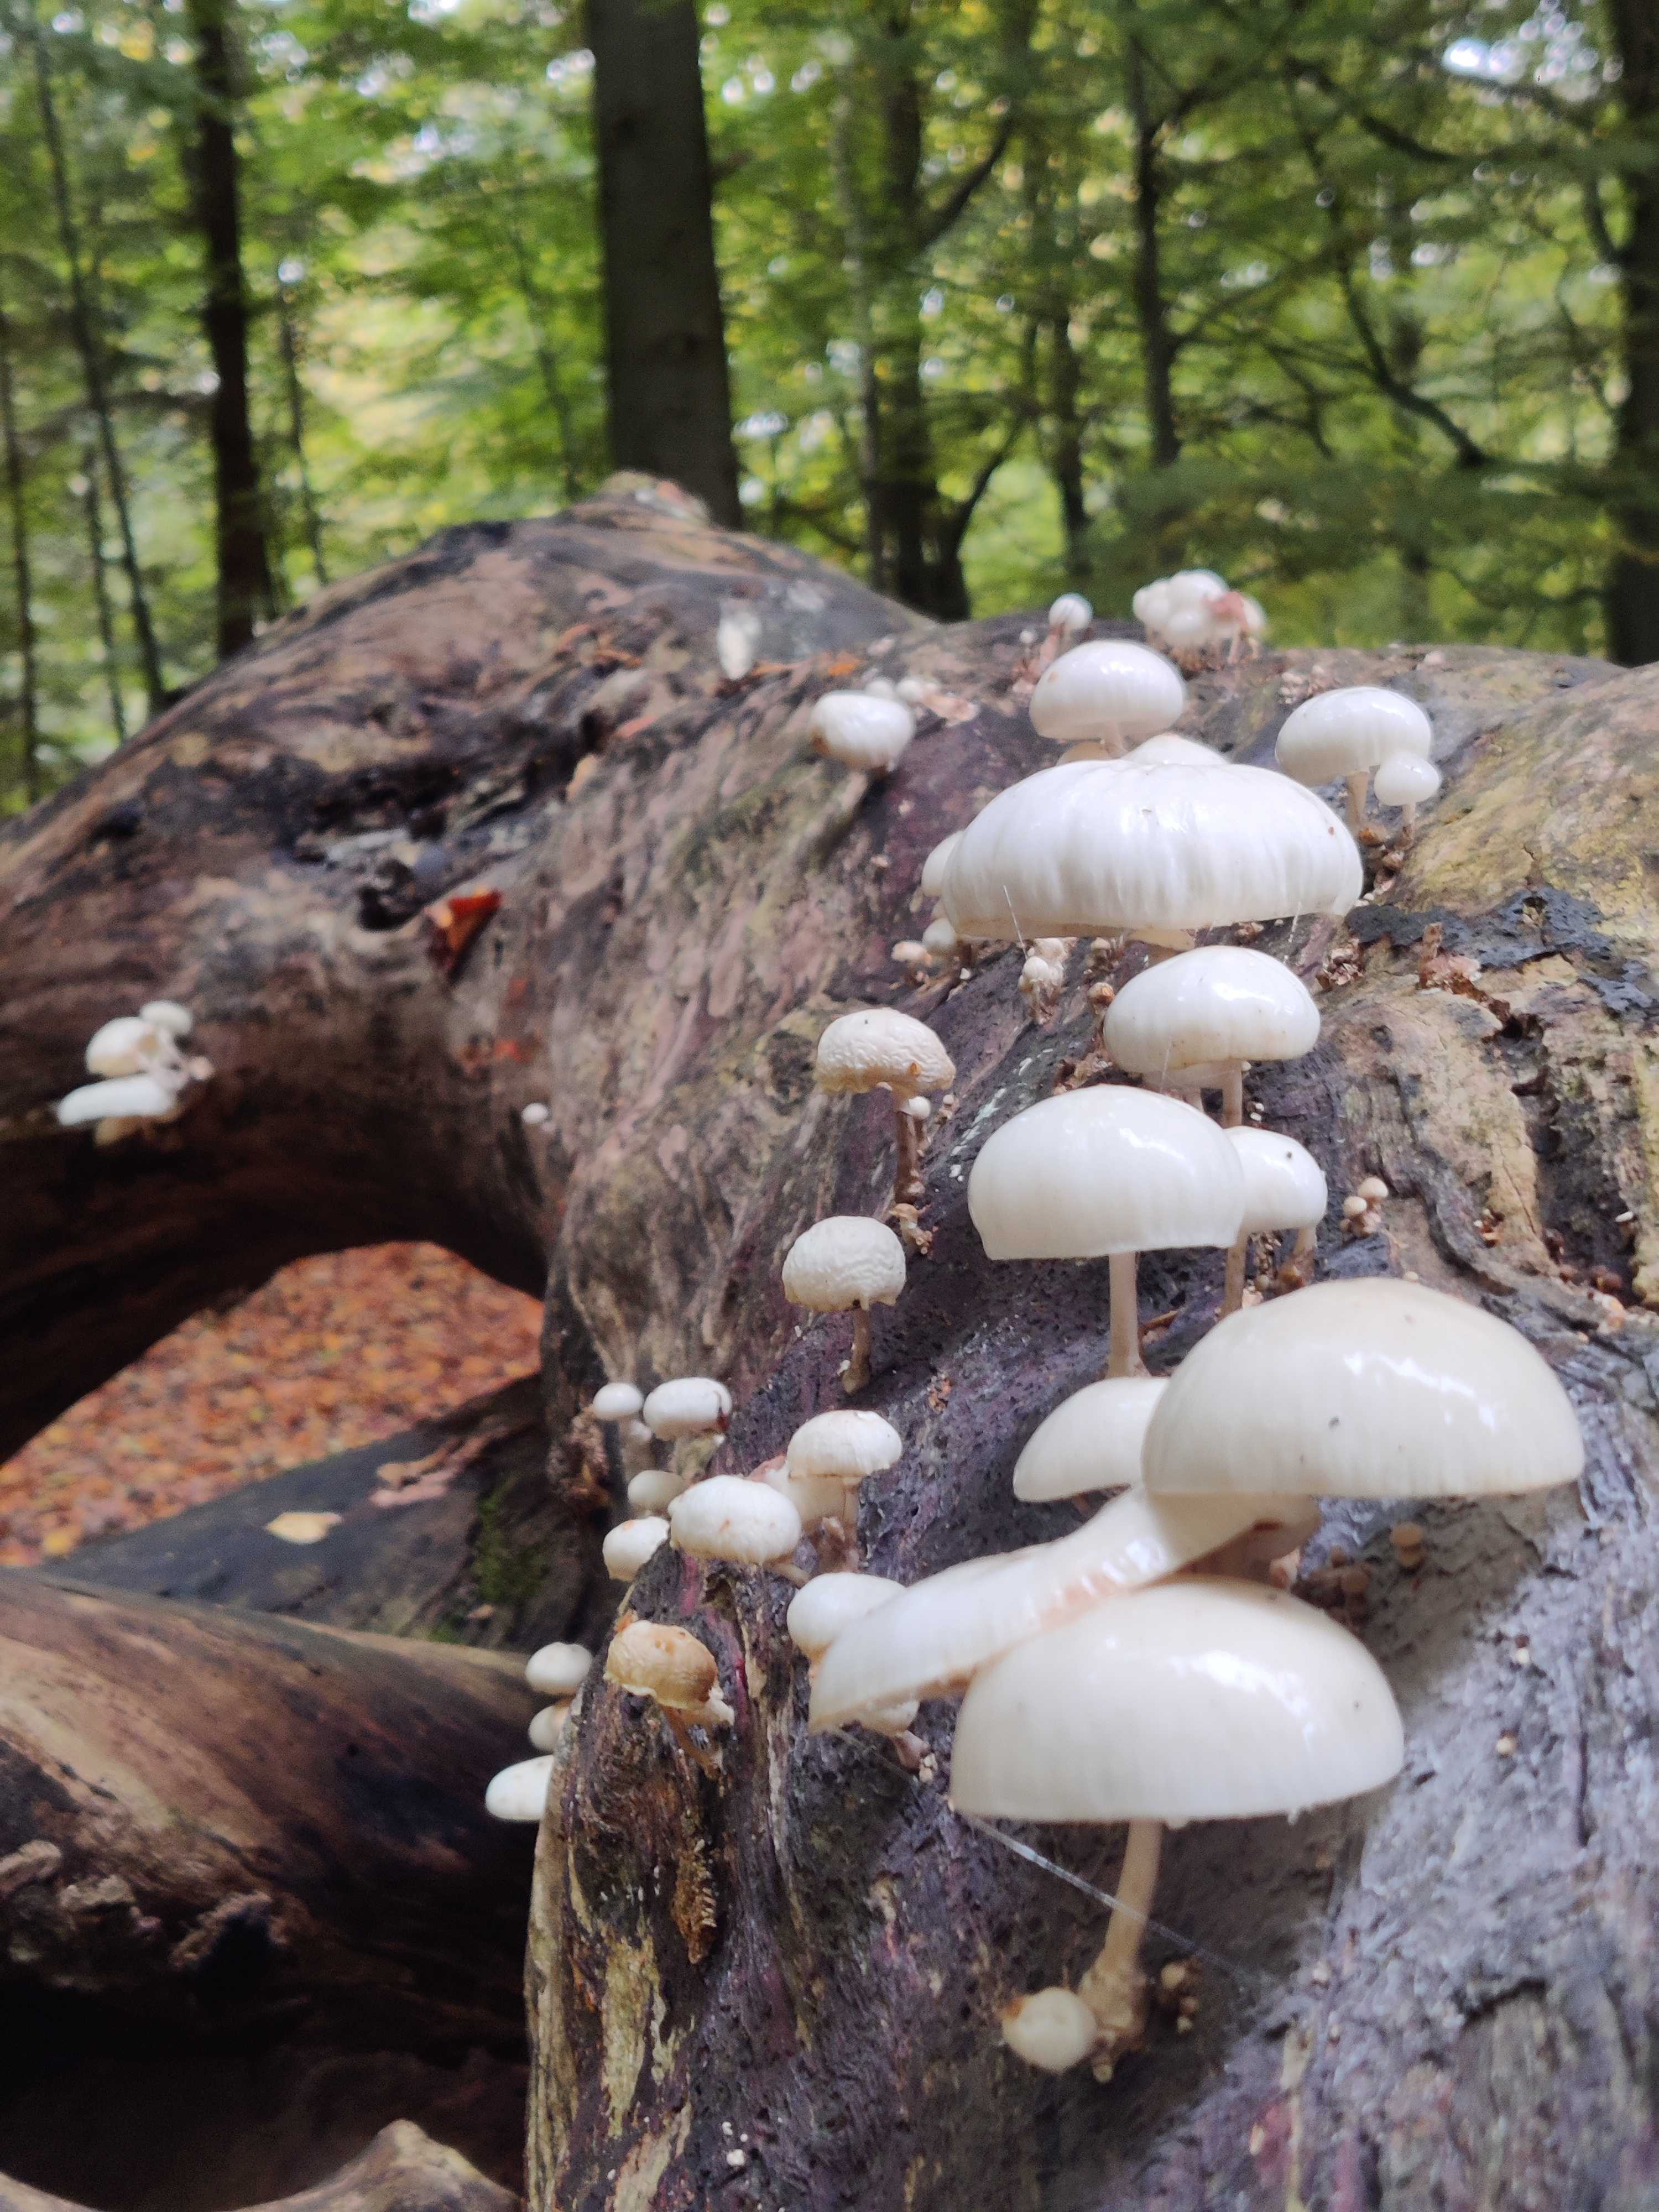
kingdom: Fungi
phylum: Basidiomycota
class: Agaricomycetes
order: Agaricales
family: Physalacriaceae
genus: Mucidula
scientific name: Mucidula mucida
